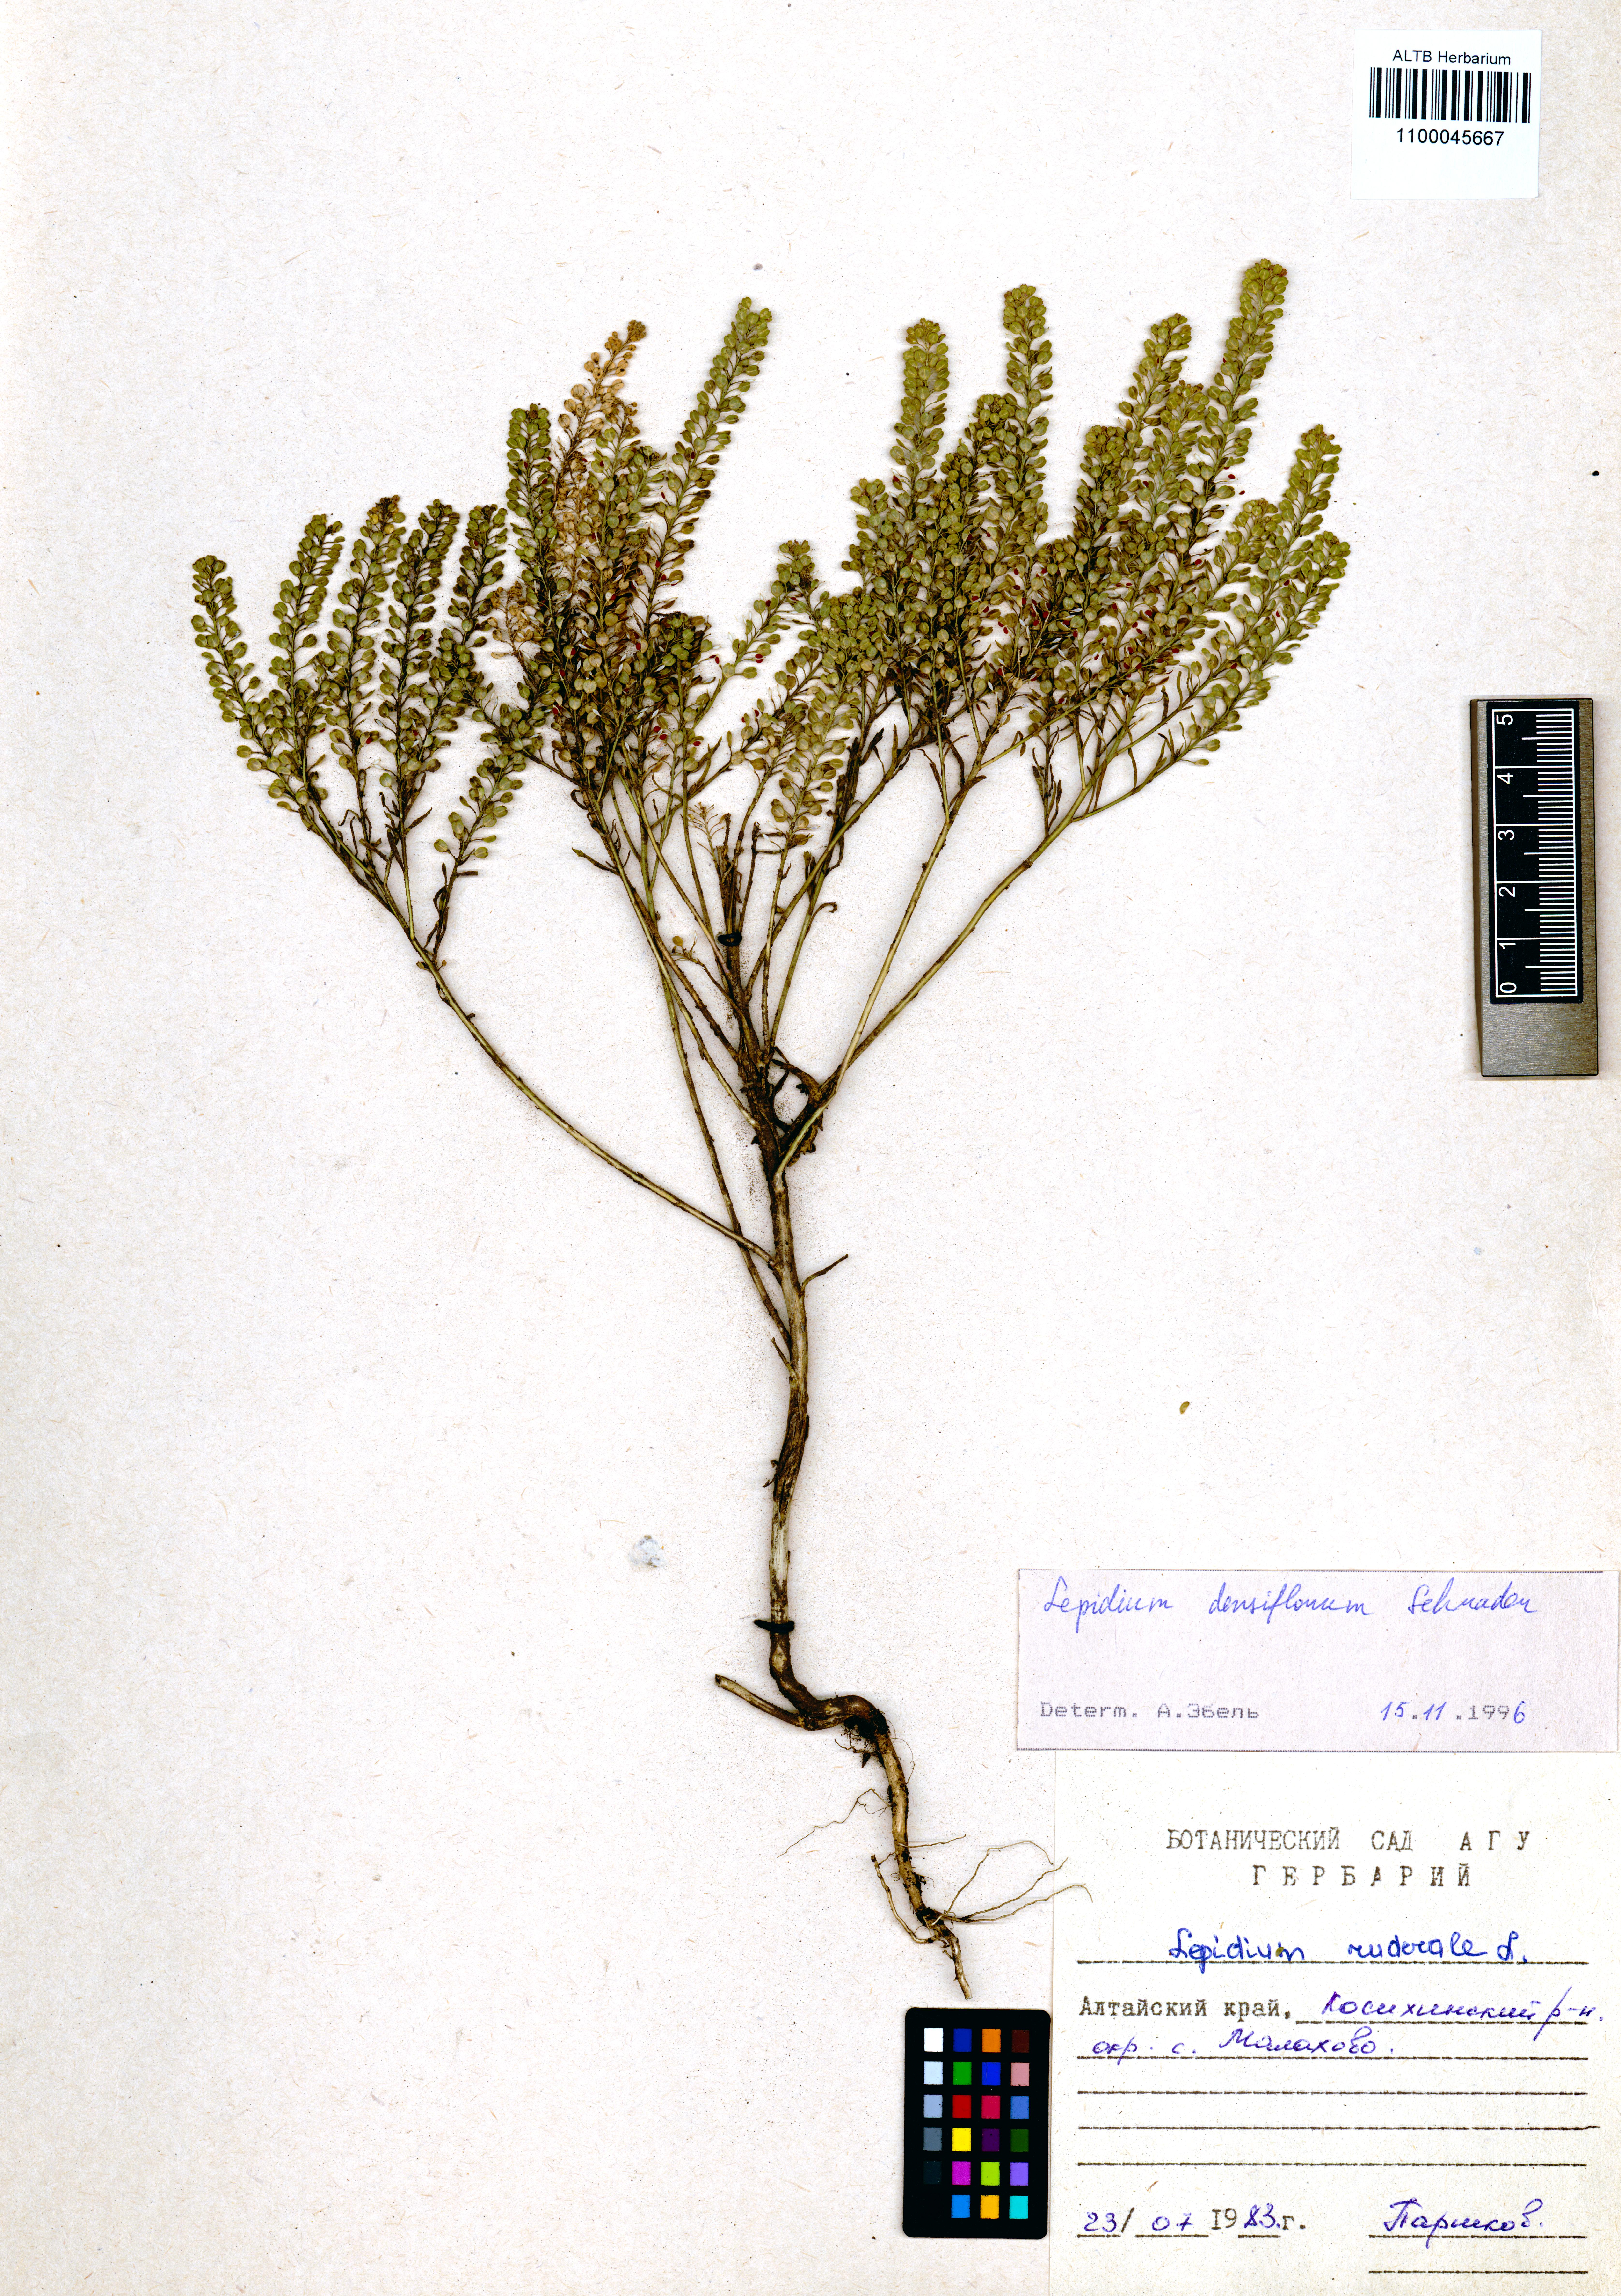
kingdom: Plantae
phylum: Tracheophyta
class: Magnoliopsida
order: Brassicales
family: Brassicaceae
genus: Lepidium
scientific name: Lepidium densiflorum
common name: Miner's pepperwort
